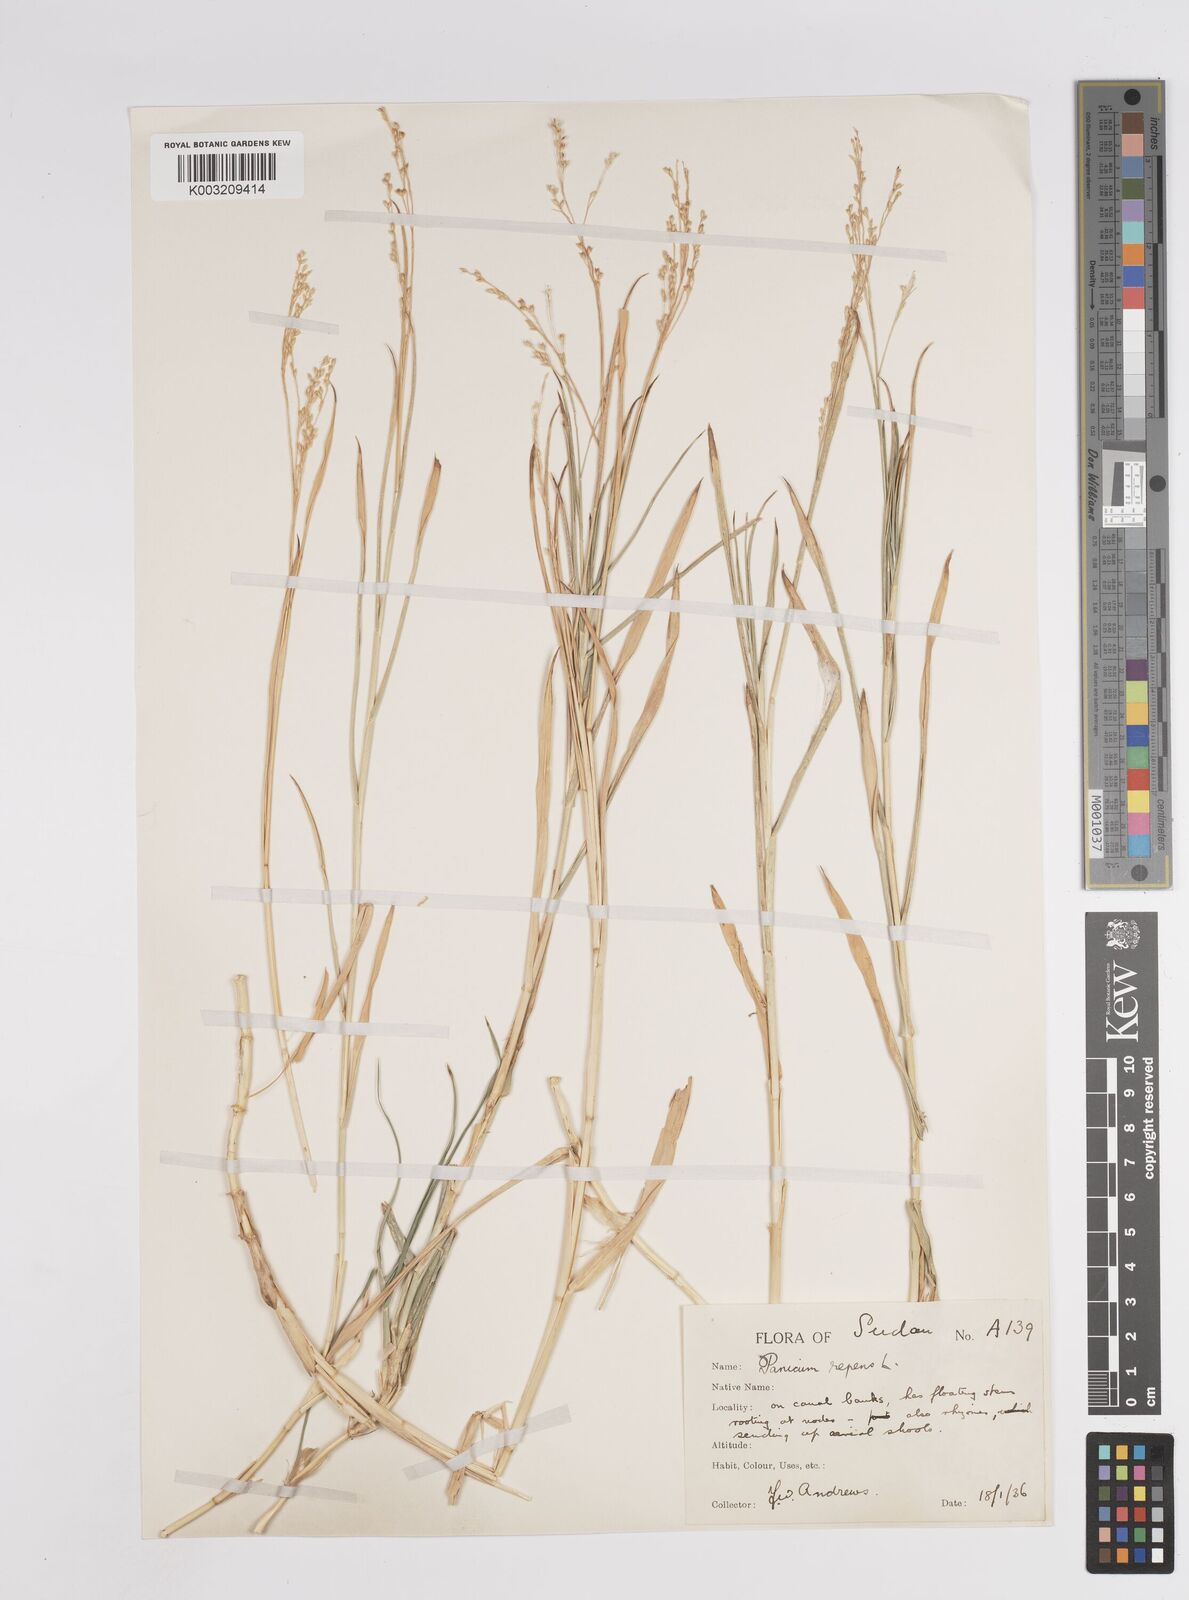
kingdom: Plantae
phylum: Tracheophyta
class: Liliopsida
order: Poales
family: Poaceae
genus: Panicum
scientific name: Panicum repens
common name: Torpedo grass
